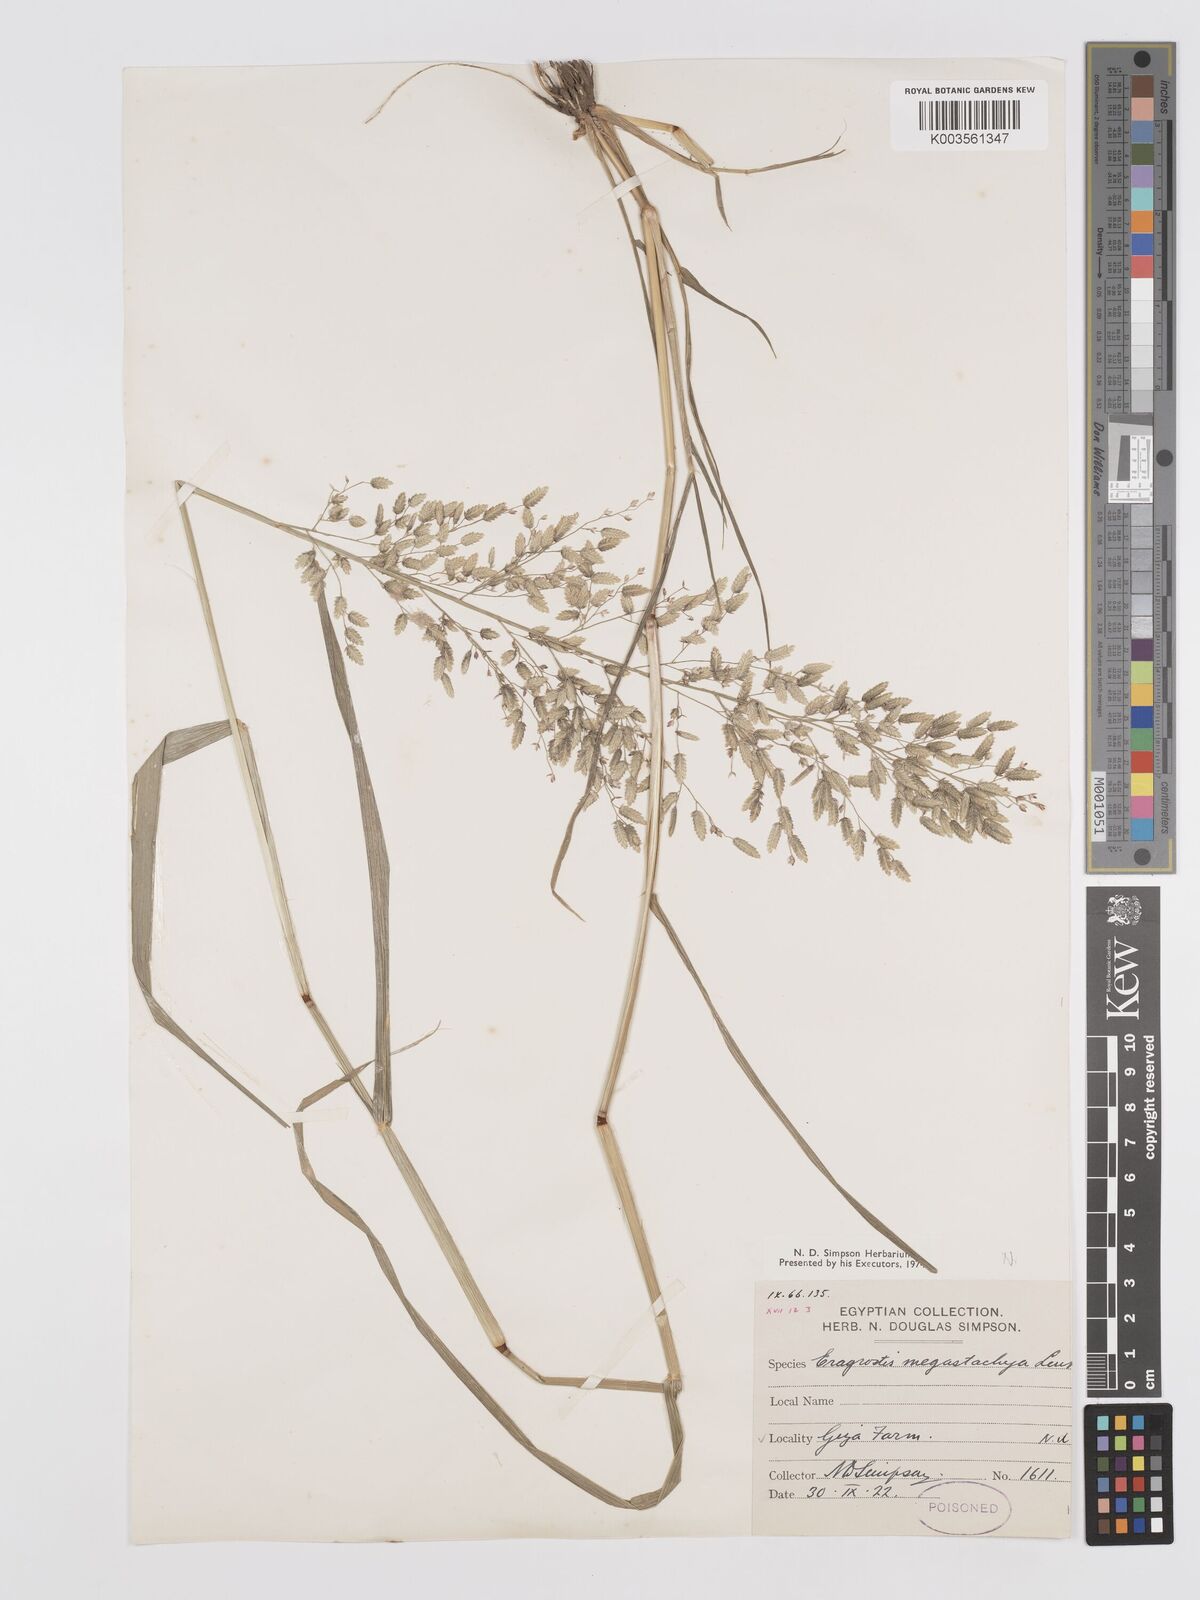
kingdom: Plantae
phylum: Tracheophyta
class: Liliopsida
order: Poales
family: Poaceae
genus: Eragrostis
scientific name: Eragrostis cilianensis
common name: Stinkgrass
